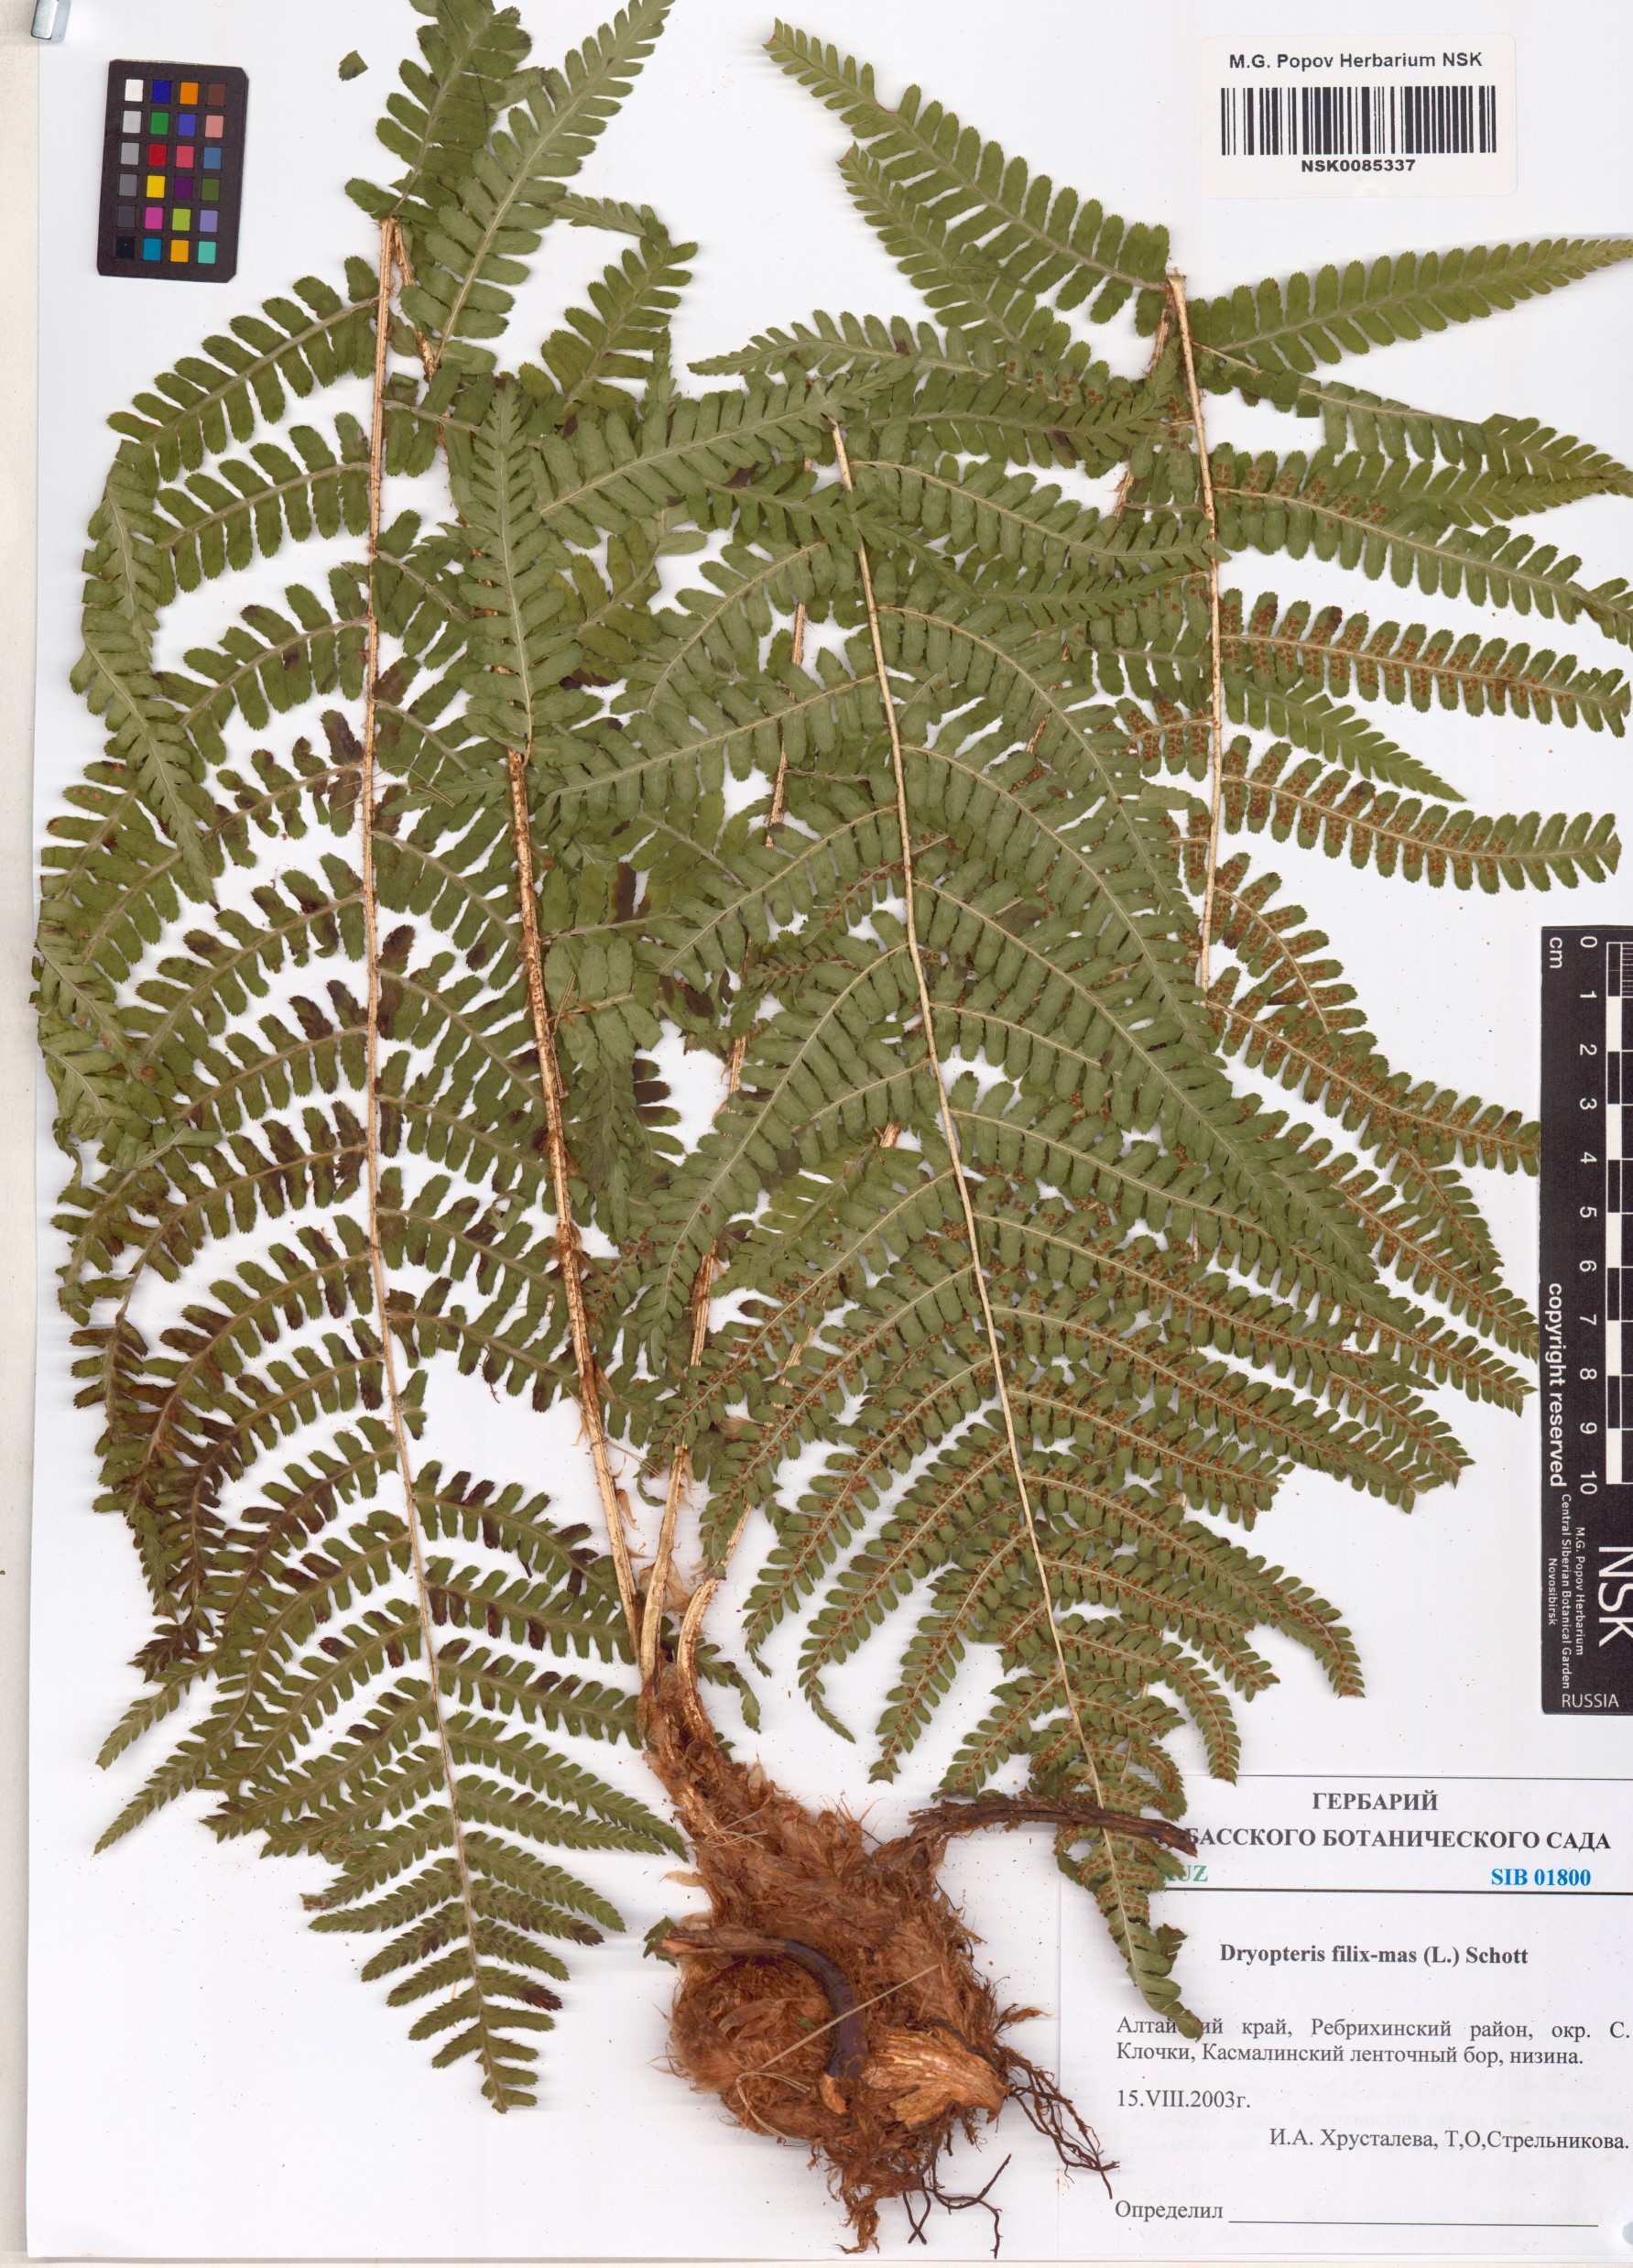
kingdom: Plantae
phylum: Tracheophyta
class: Polypodiopsida
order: Polypodiales
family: Dryopteridaceae
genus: Dryopteris
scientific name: Dryopteris filix-mas
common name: Male fern
